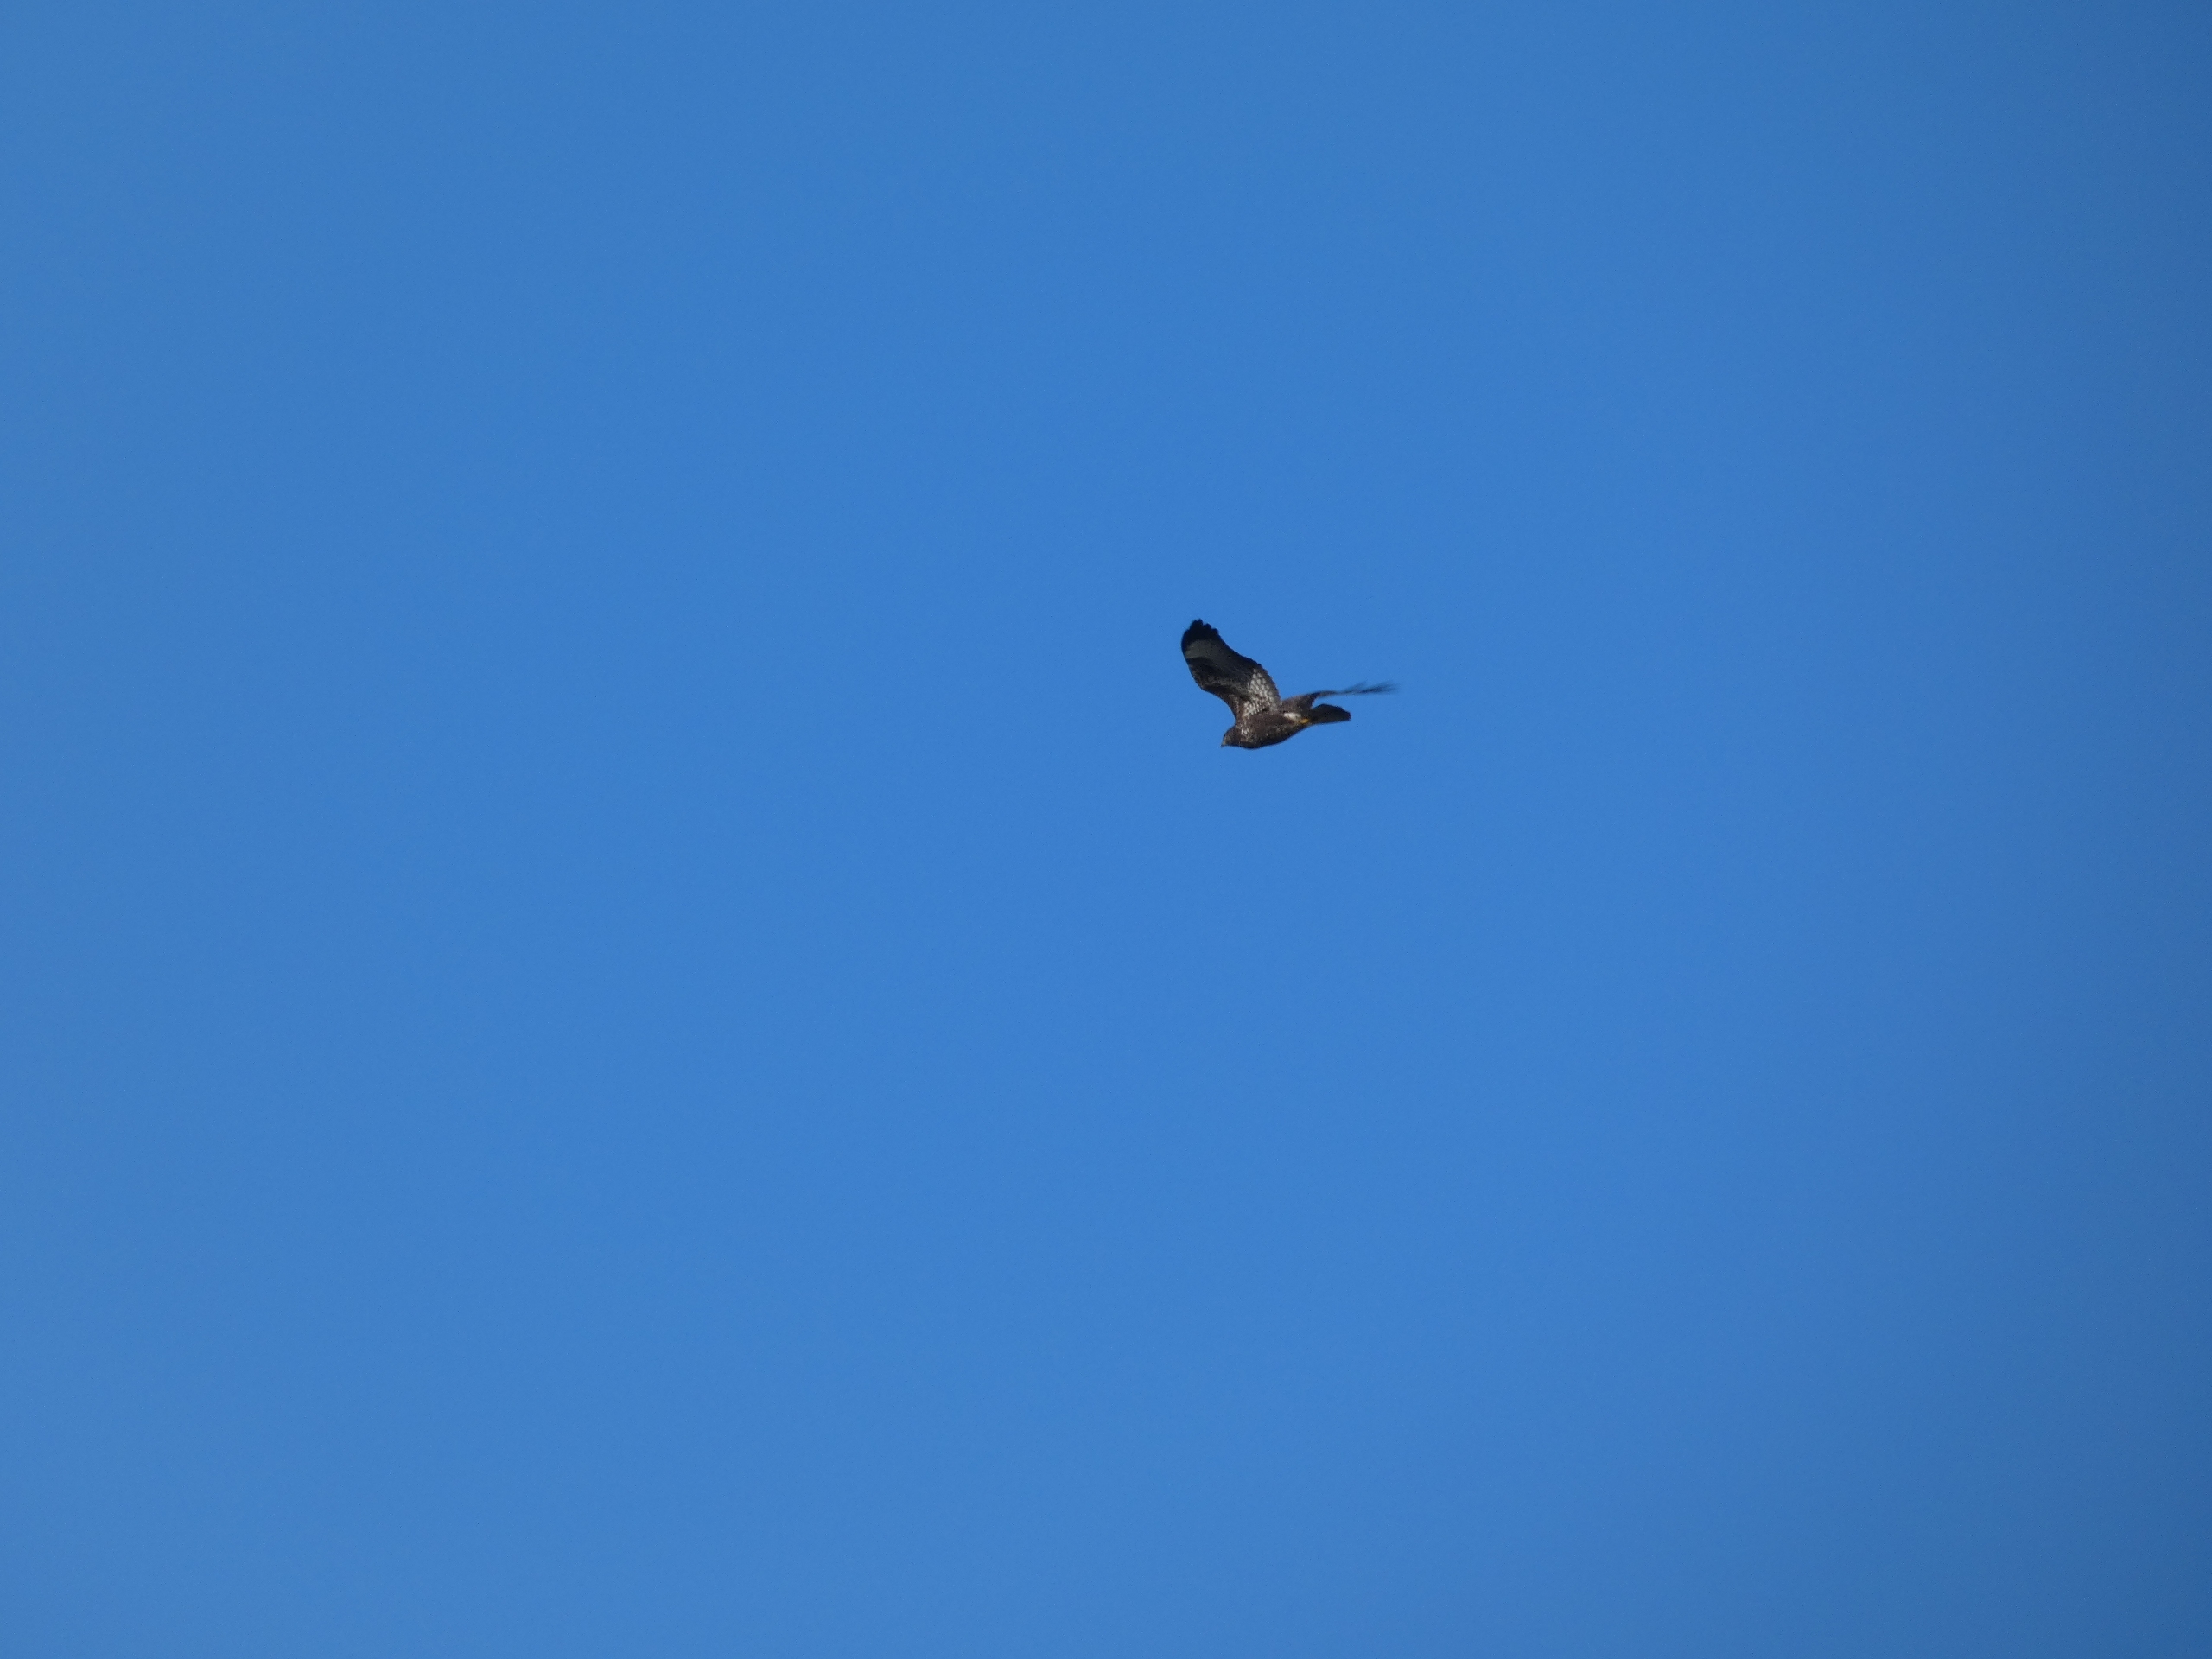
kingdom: Animalia
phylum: Chordata
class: Aves
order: Accipitriformes
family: Accipitridae
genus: Buteo
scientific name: Buteo buteo
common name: Musvåge
